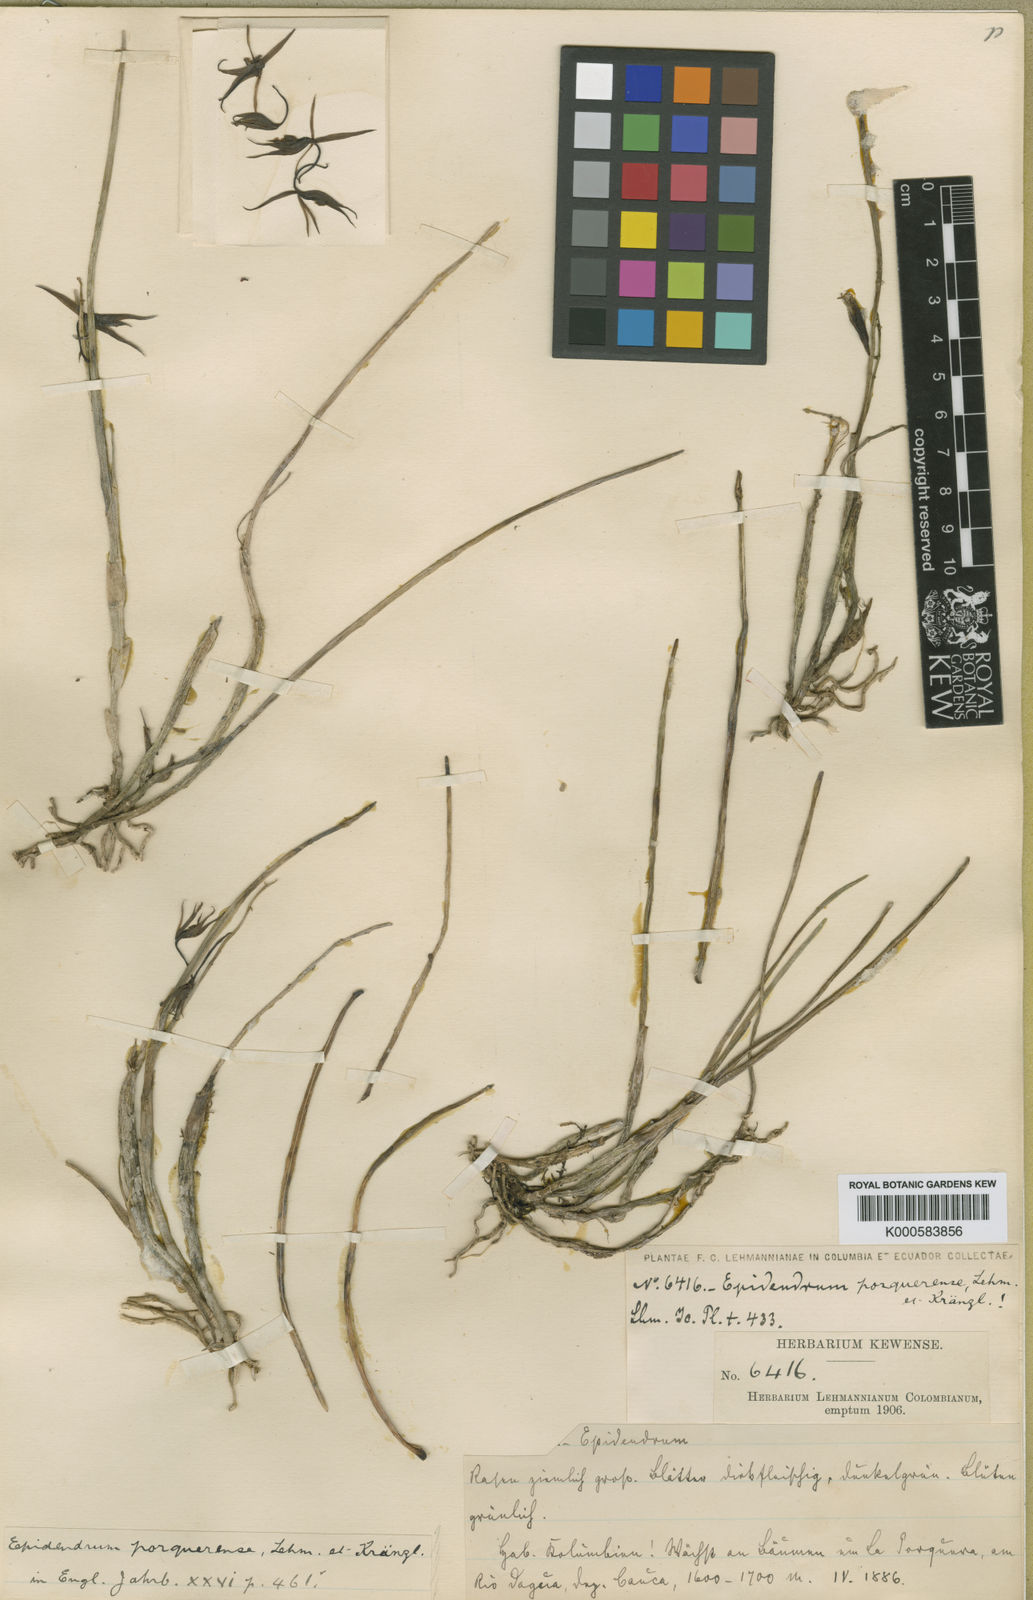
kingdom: Plantae
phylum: Tracheophyta
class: Liliopsida
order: Asparagales
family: Orchidaceae
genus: Epidendrum
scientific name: Epidendrum porquerense
